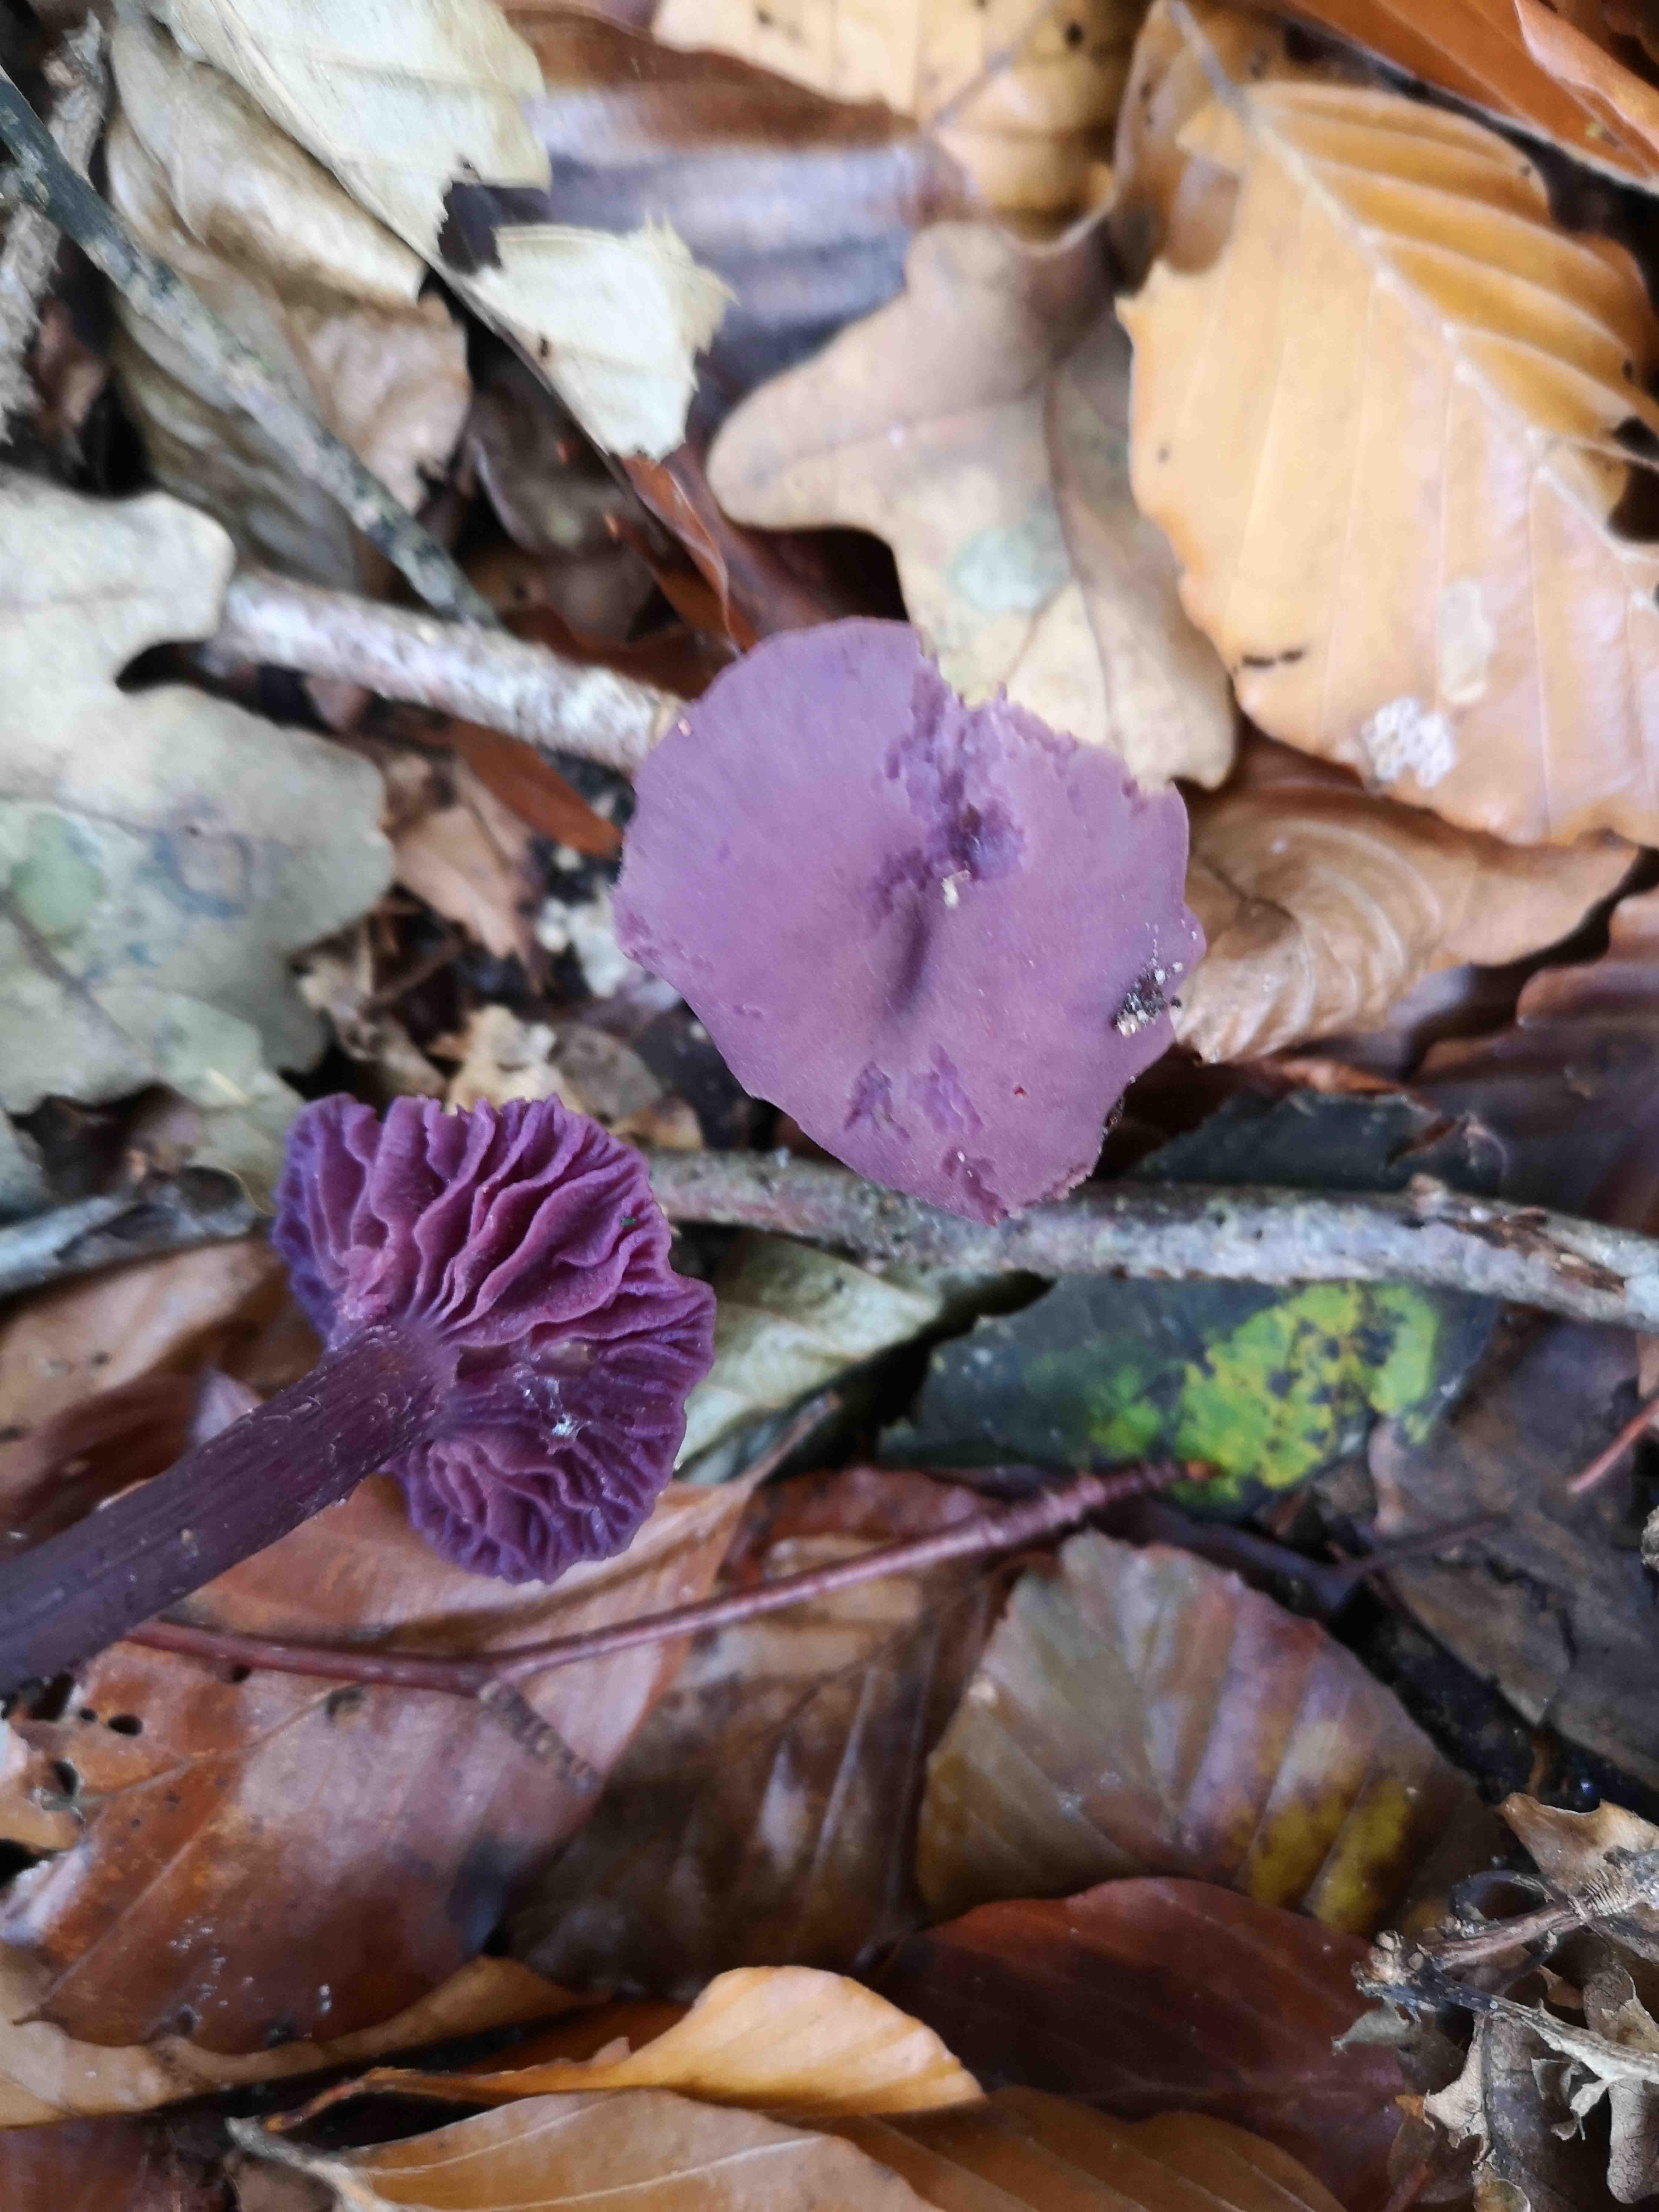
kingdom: Fungi
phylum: Basidiomycota
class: Agaricomycetes
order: Agaricales
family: Hydnangiaceae
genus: Laccaria
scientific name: Laccaria amethystina
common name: violet ametysthat
